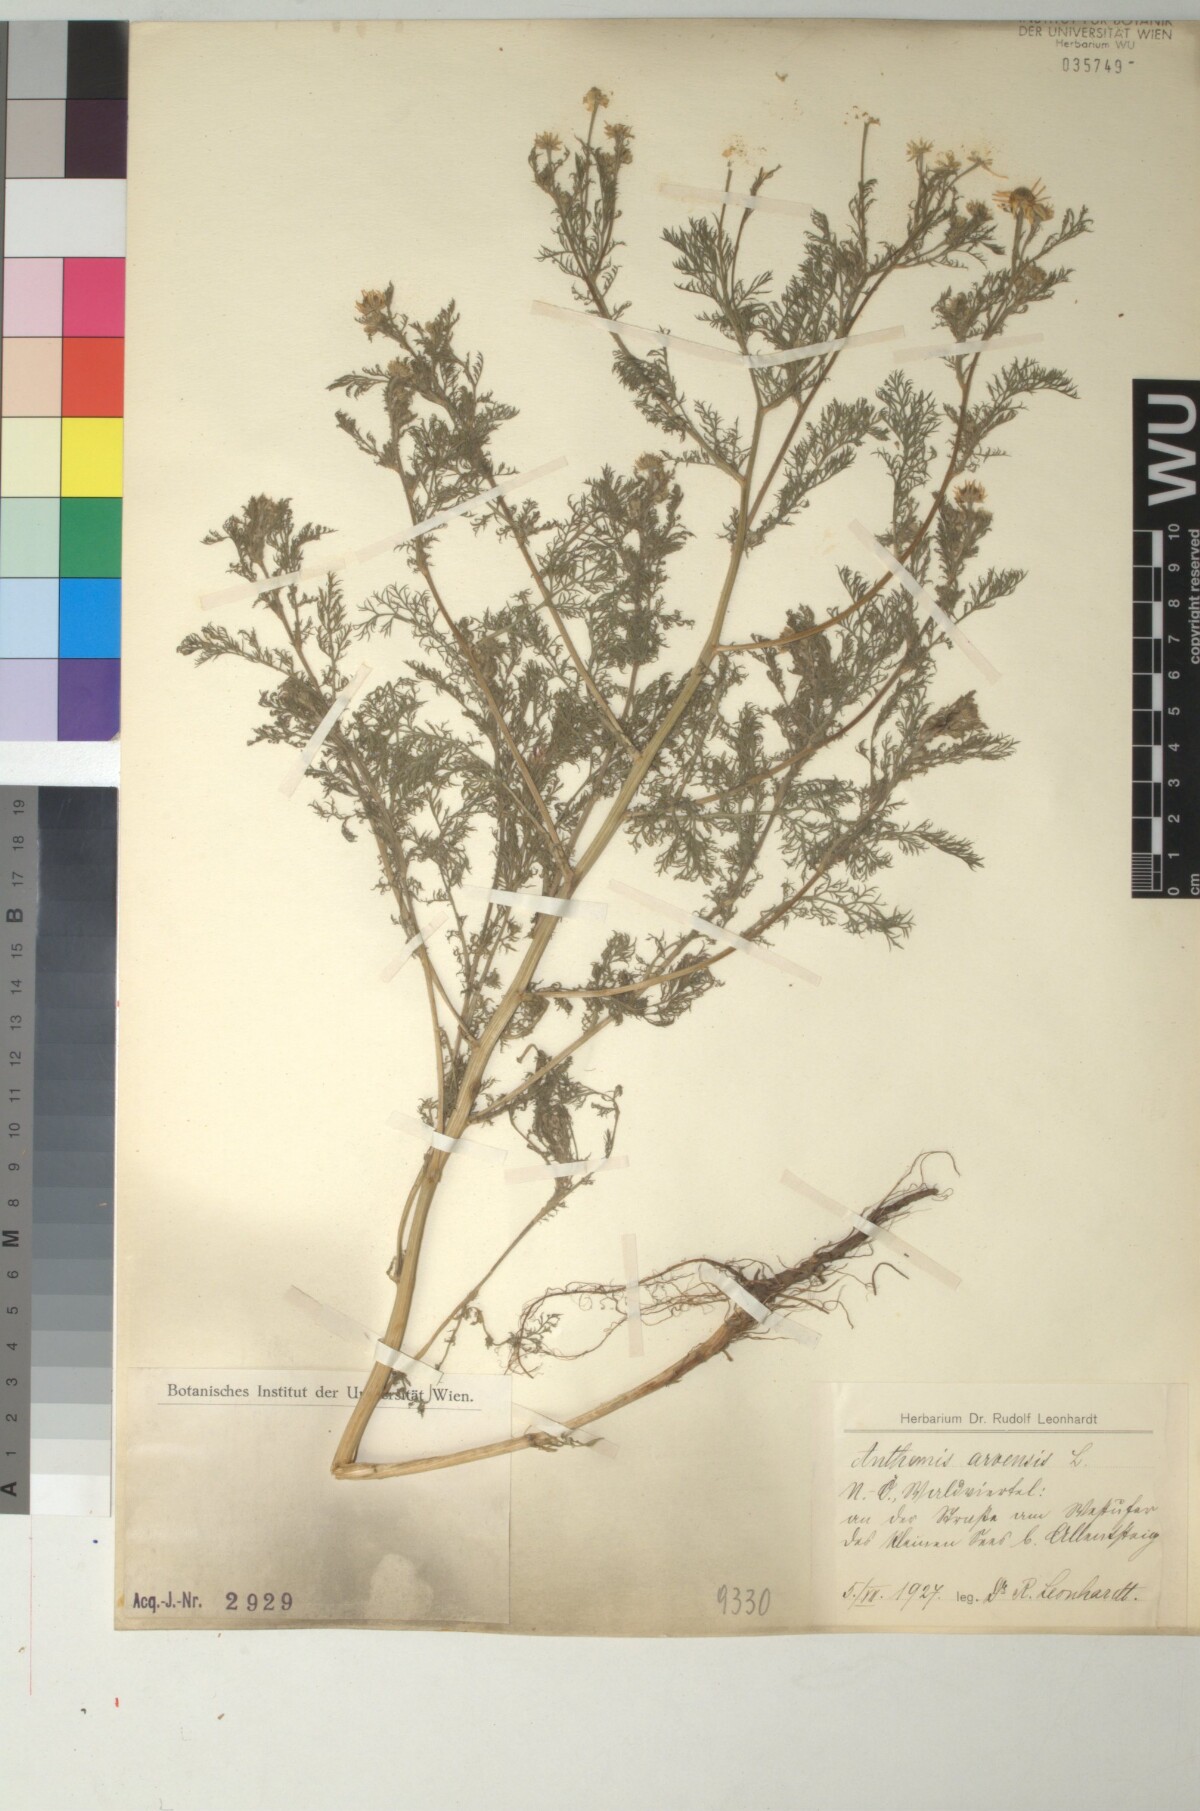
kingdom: Plantae
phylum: Tracheophyta
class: Magnoliopsida
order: Asterales
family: Asteraceae
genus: Anthemis
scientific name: Anthemis arvensis
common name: Corn chamomile
